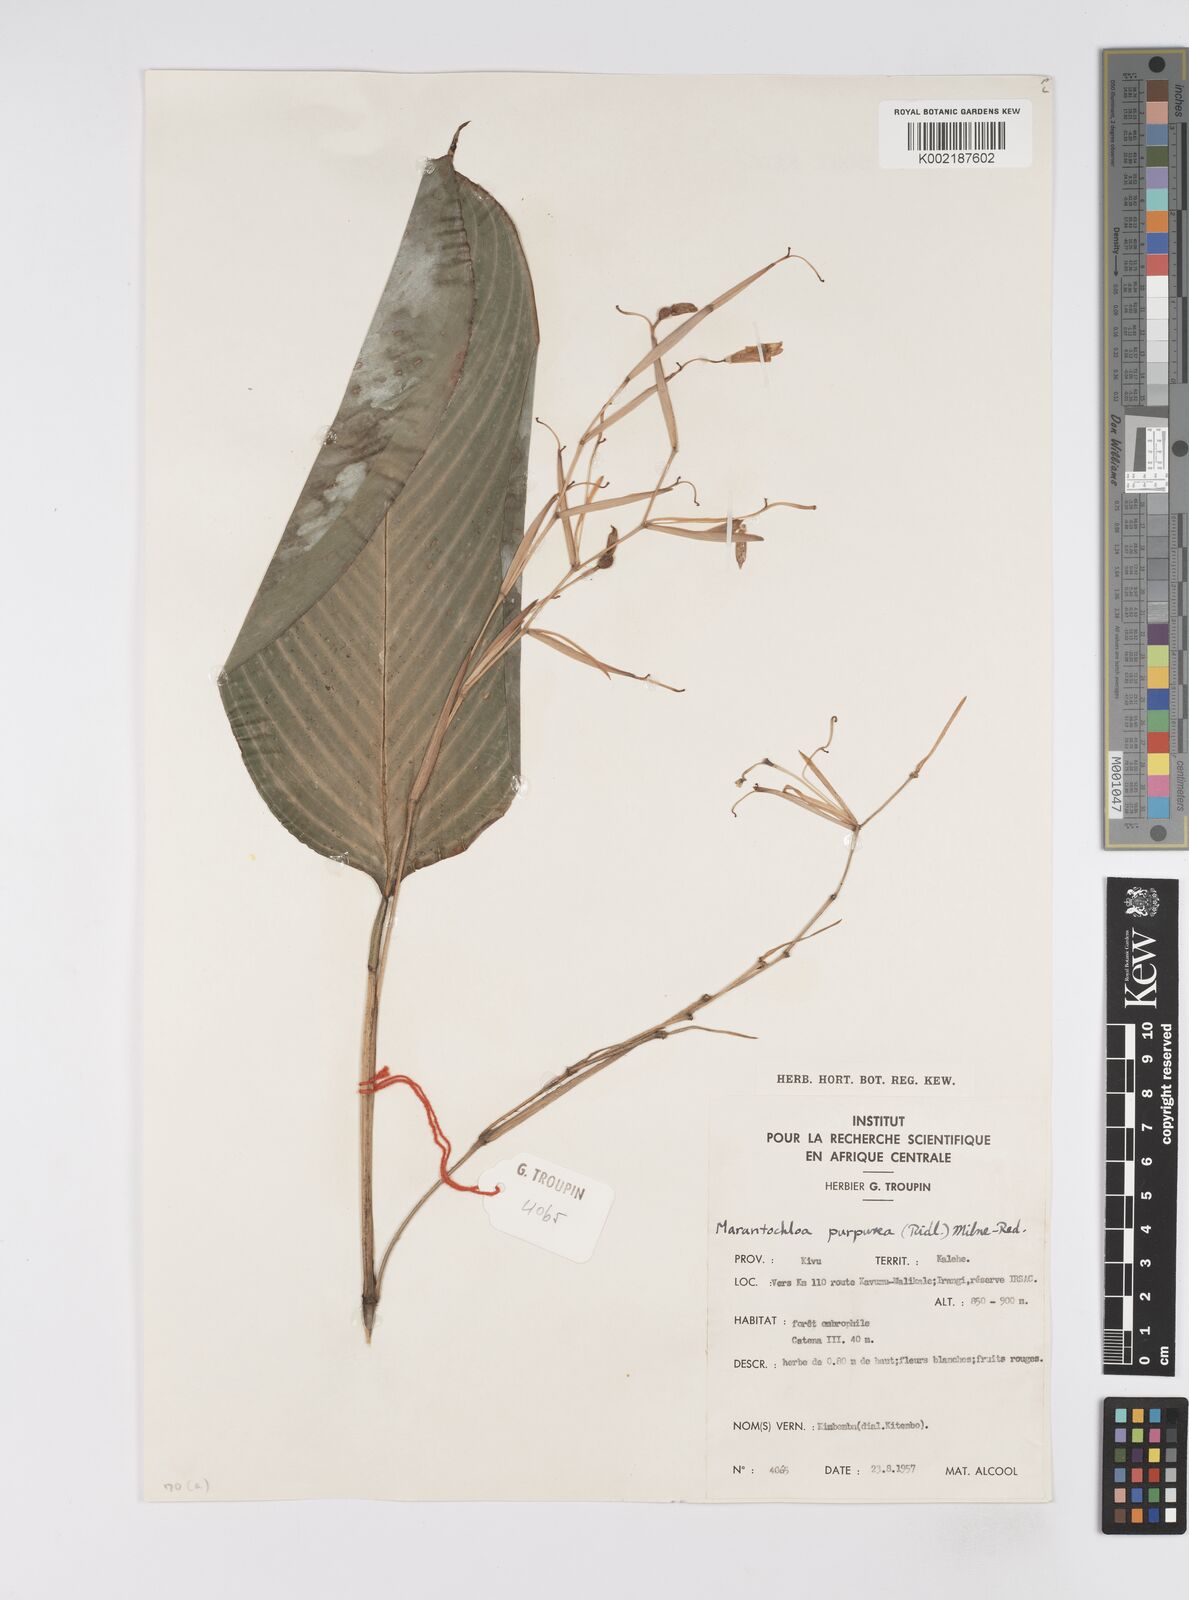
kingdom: Plantae
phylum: Tracheophyta
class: Liliopsida
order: Zingiberales
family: Marantaceae
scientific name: Marantaceae
